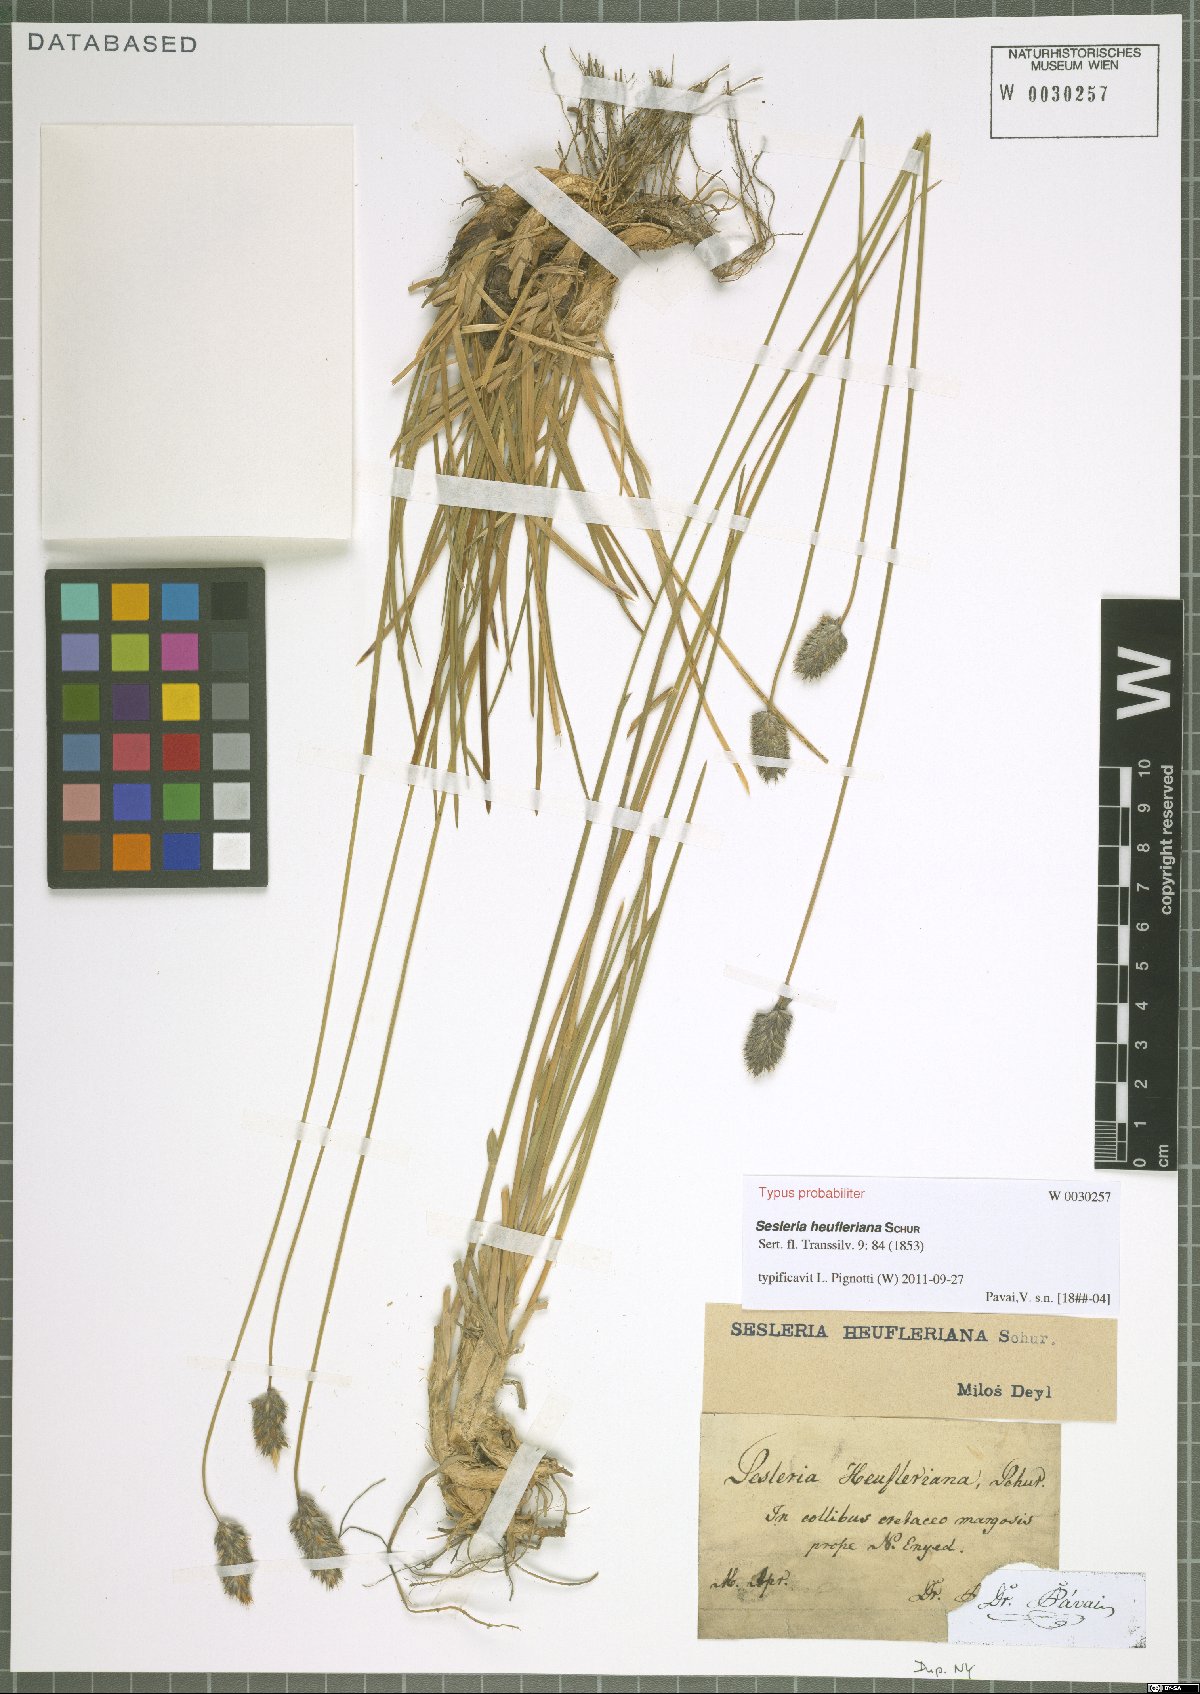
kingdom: Plantae
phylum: Tracheophyta
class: Liliopsida
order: Poales
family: Poaceae
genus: Sesleria
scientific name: Sesleria heufleriana
